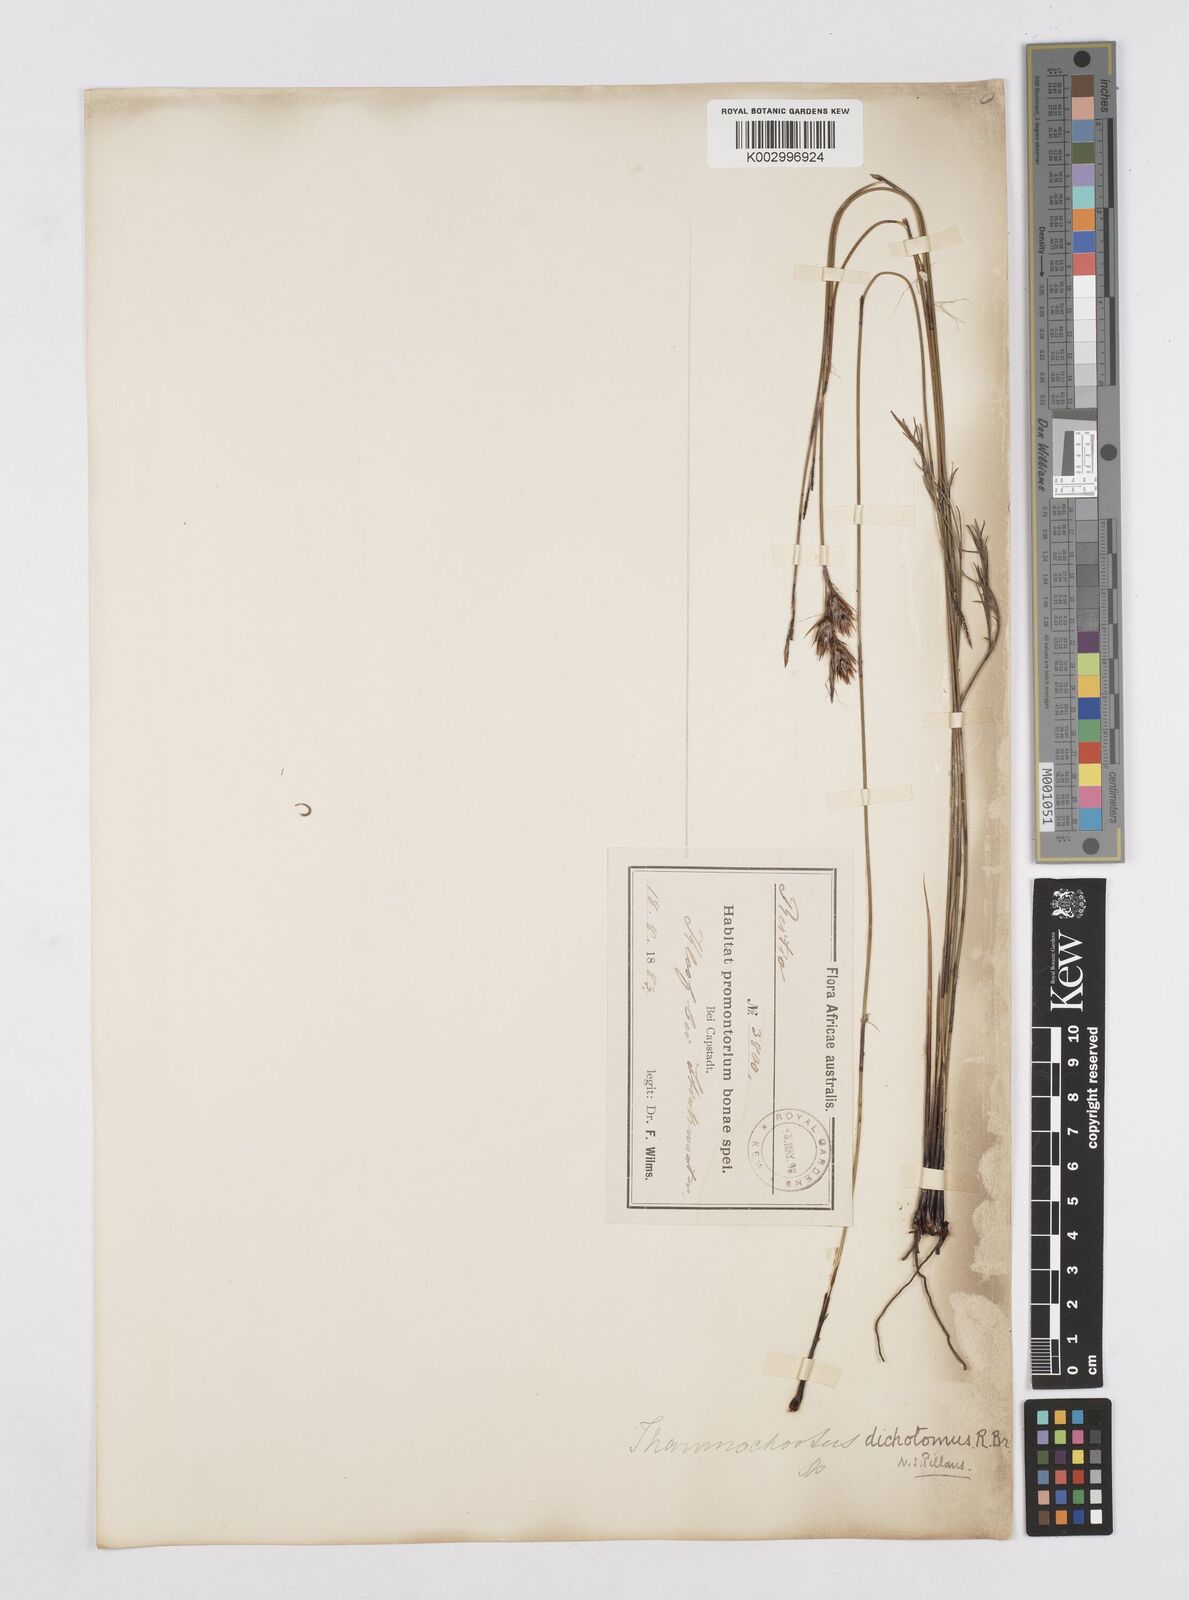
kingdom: Plantae
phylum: Tracheophyta
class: Liliopsida
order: Poales
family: Restionaceae
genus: Thamnochortus
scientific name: Thamnochortus lucens
